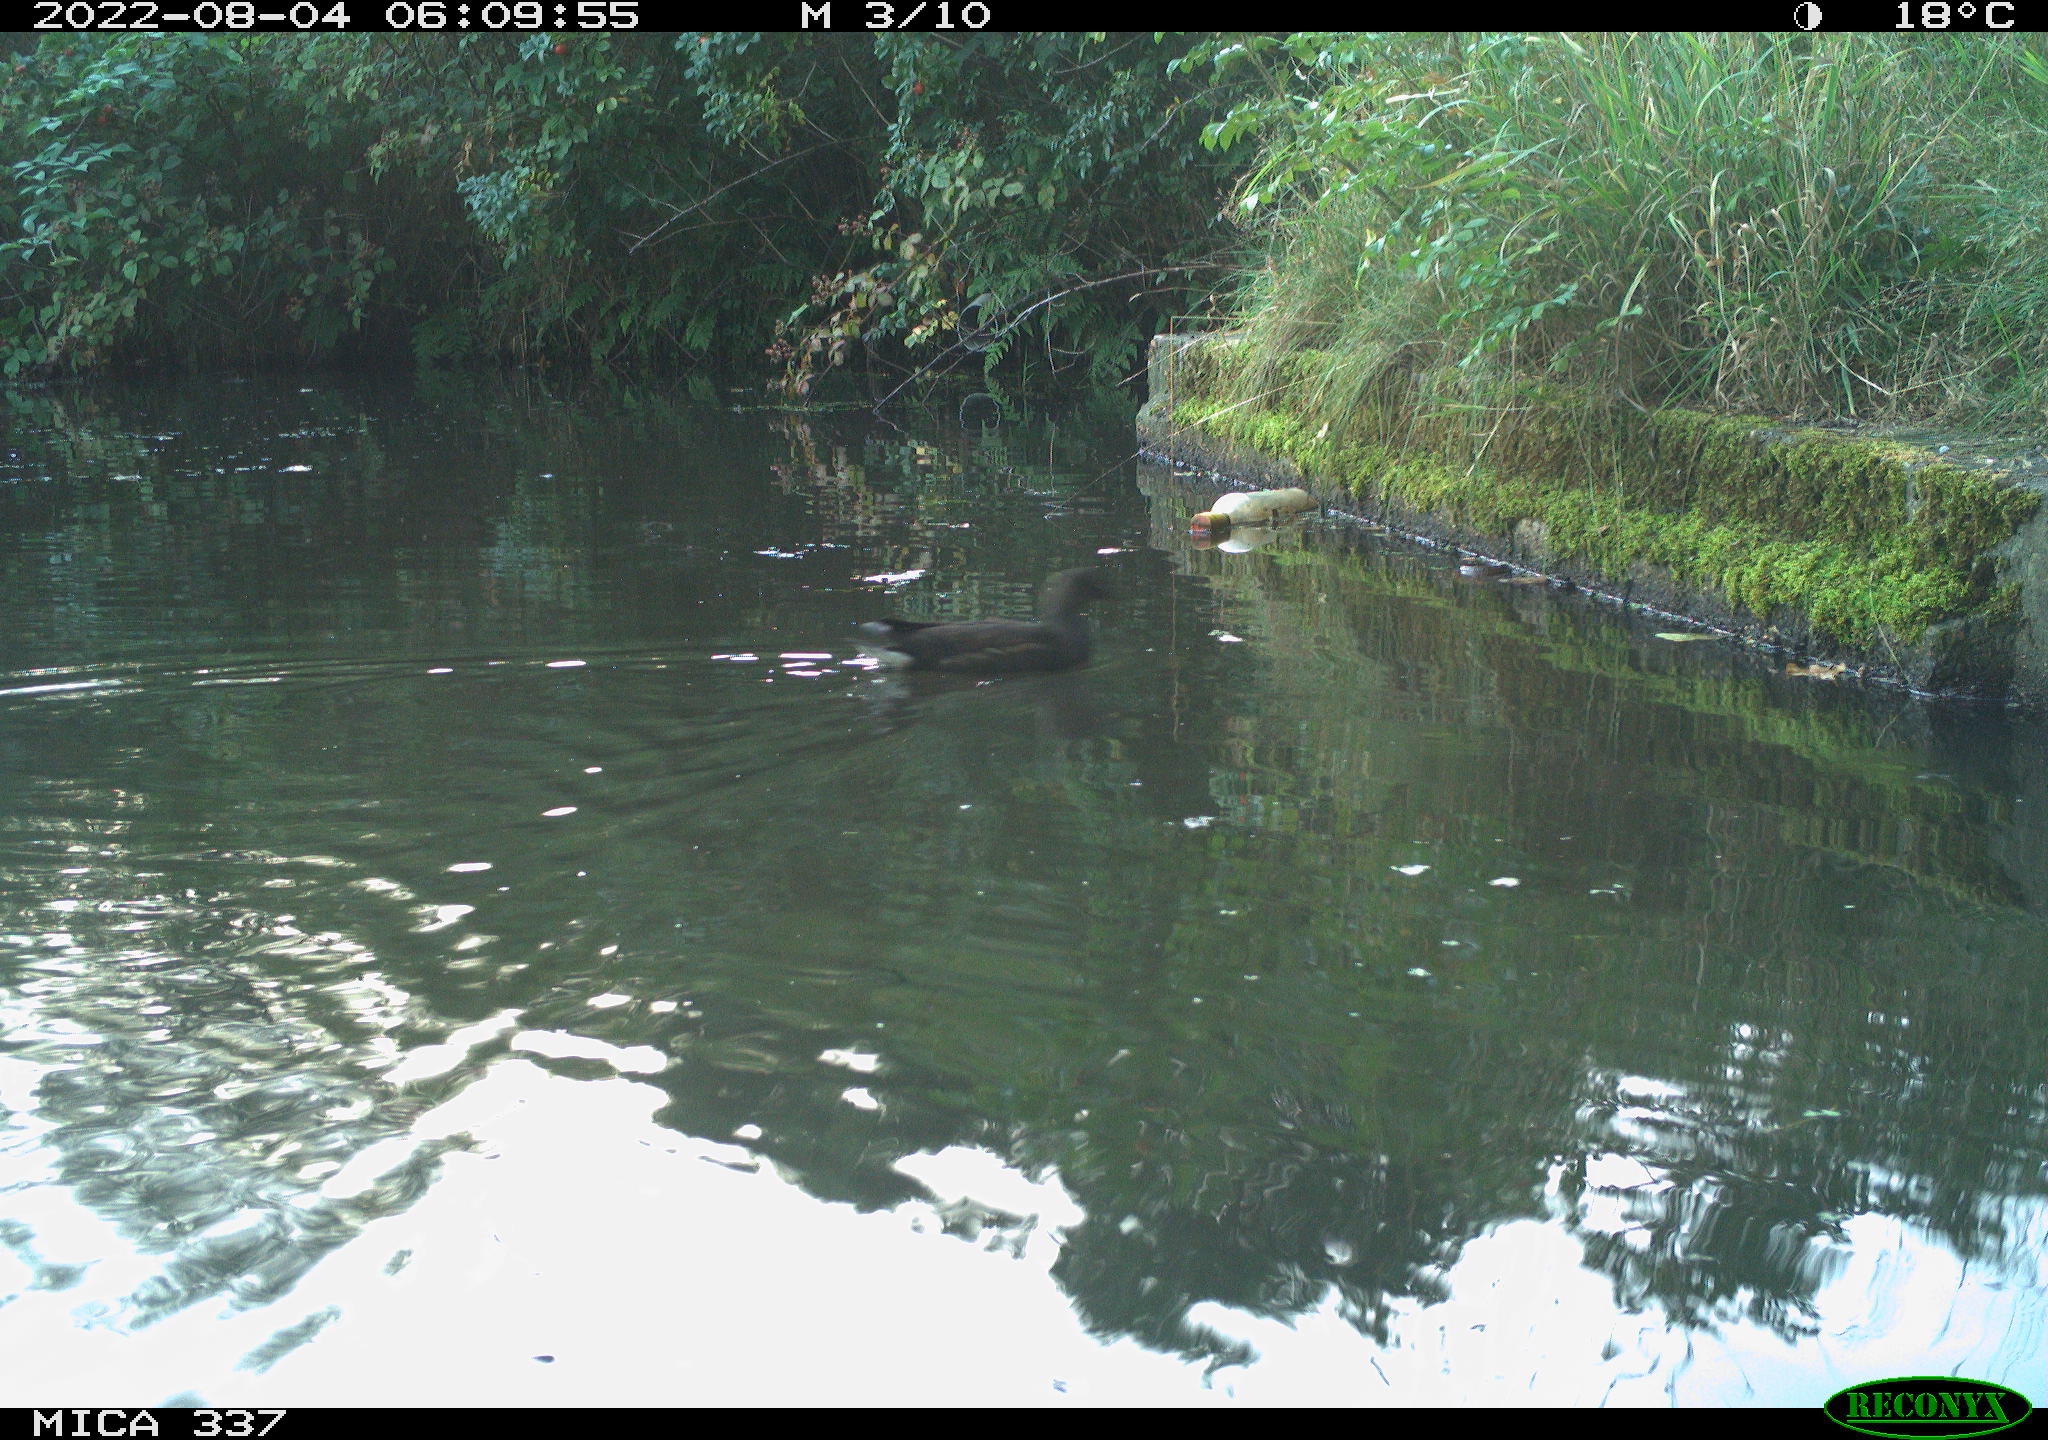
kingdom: Animalia
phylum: Chordata
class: Aves
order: Gruiformes
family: Rallidae
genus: Gallinula
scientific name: Gallinula chloropus
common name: Common moorhen
